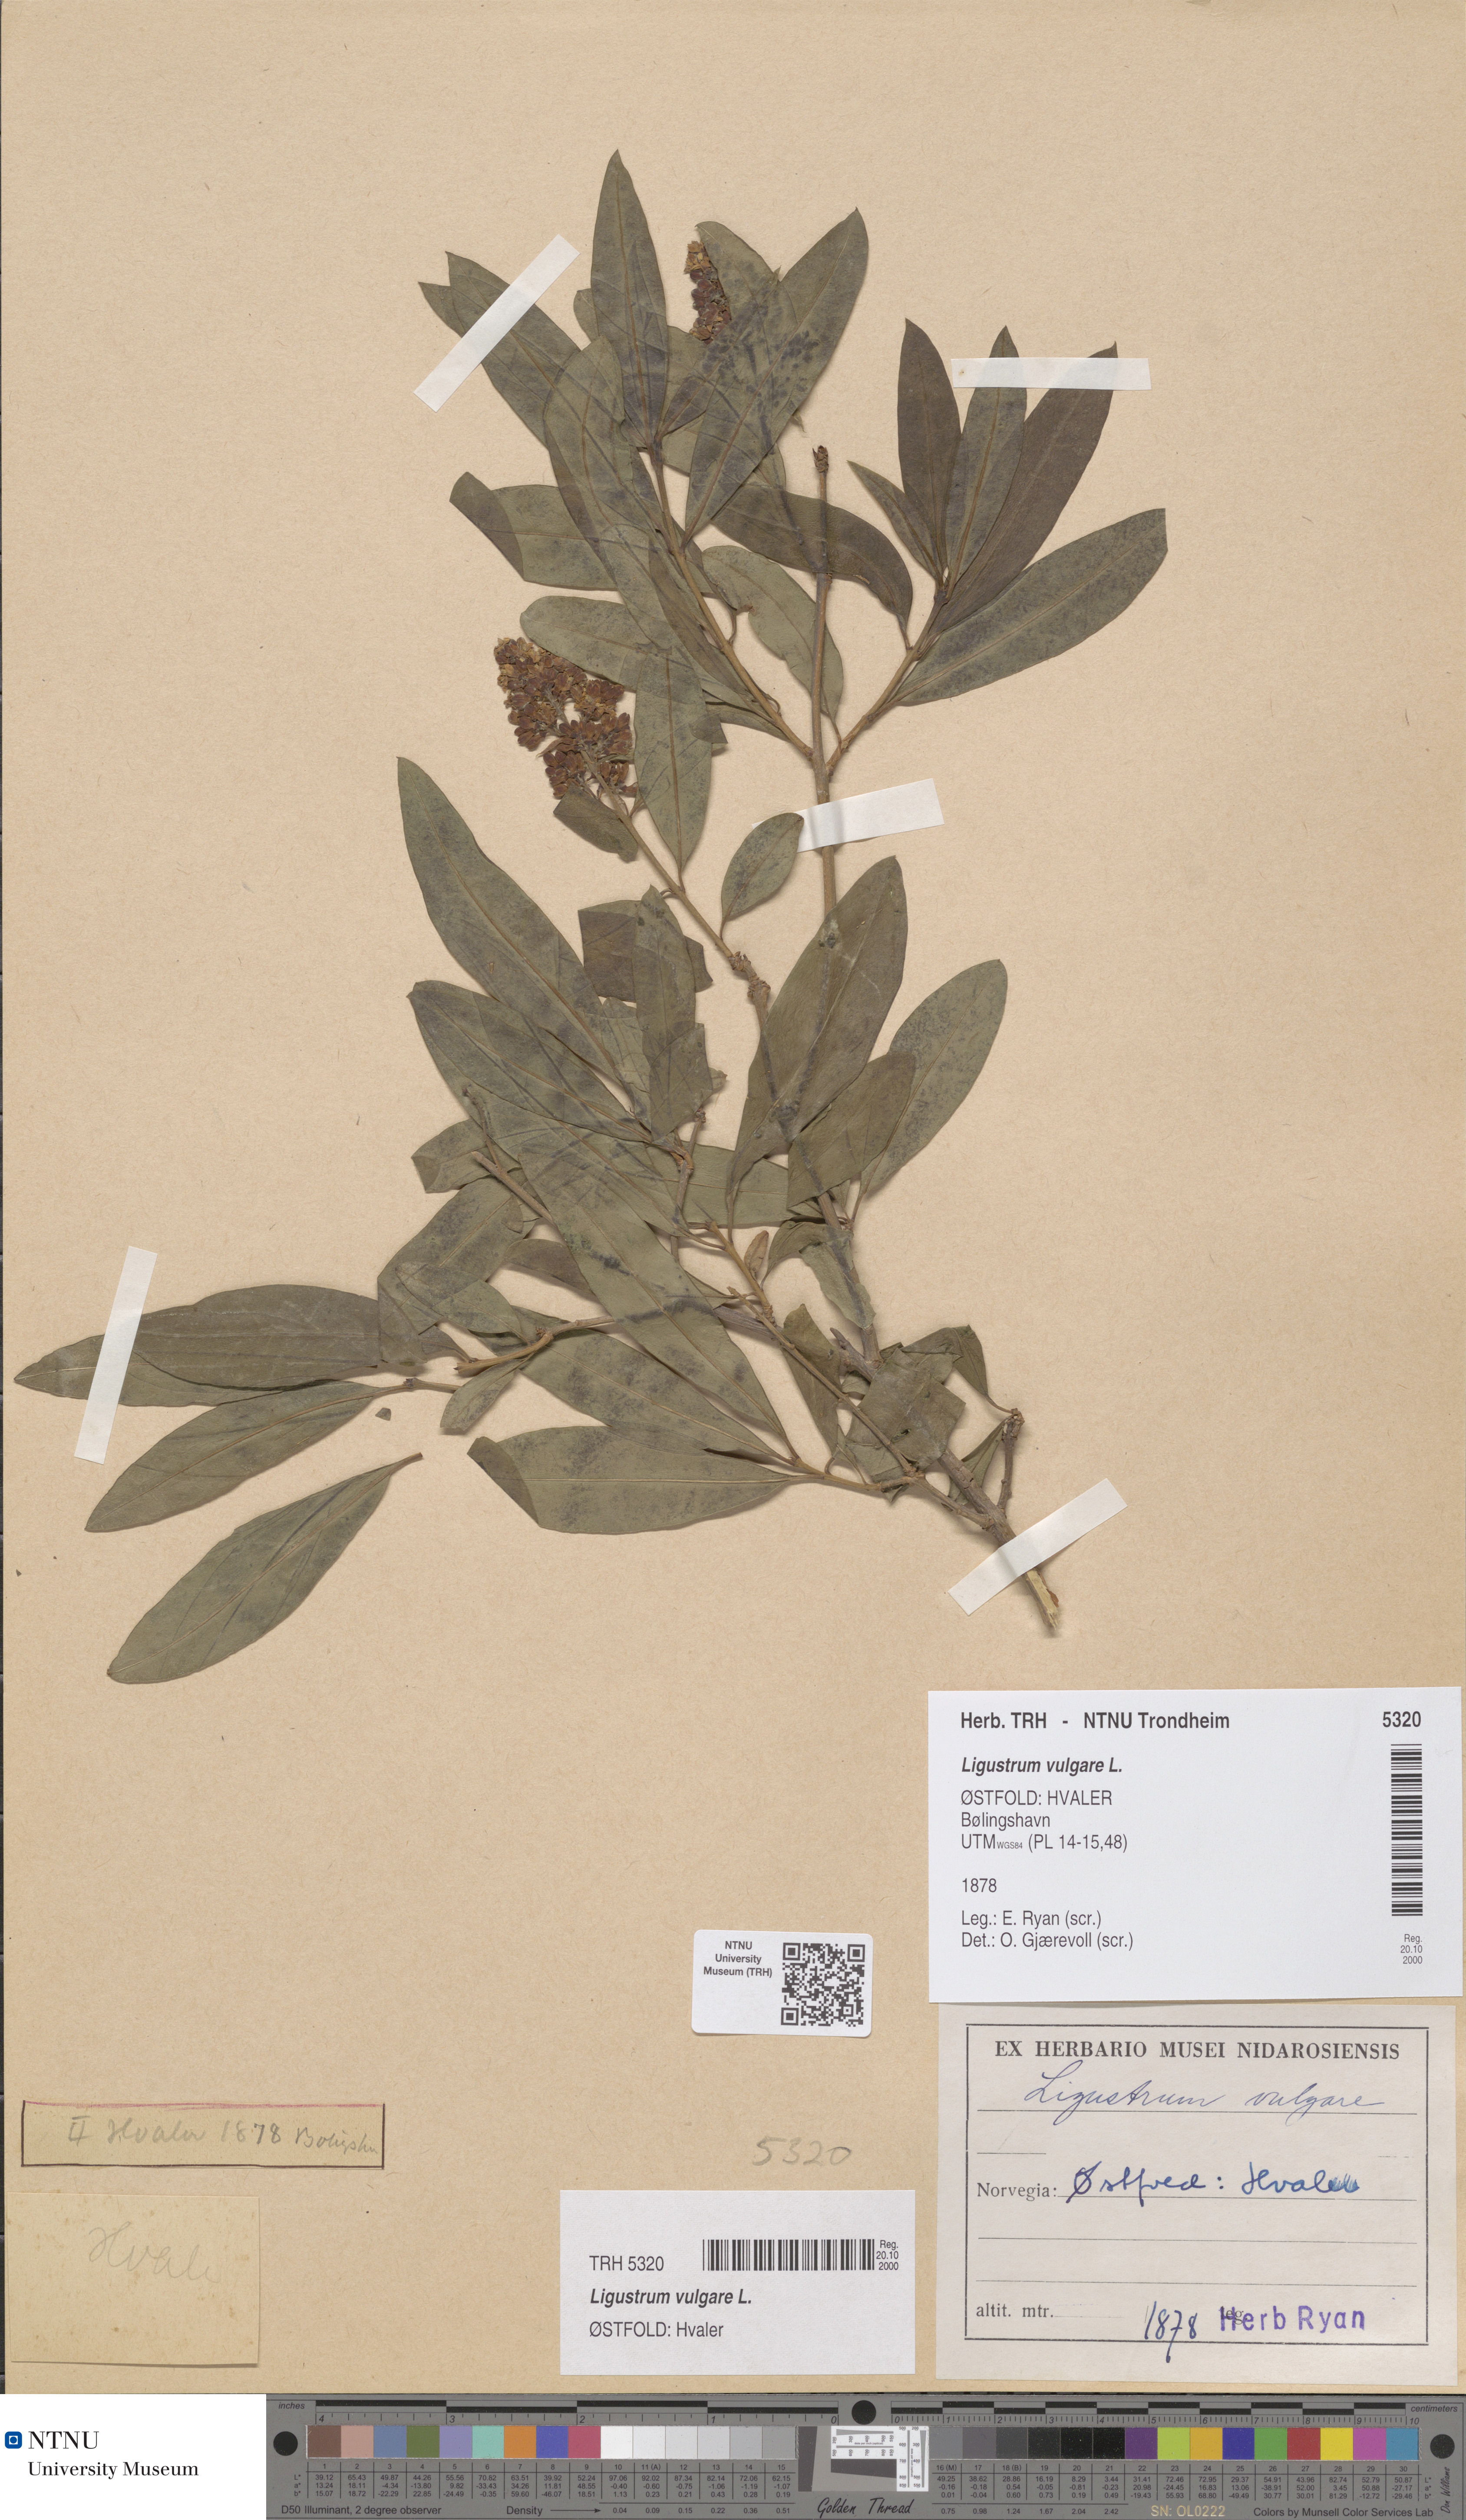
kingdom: Plantae
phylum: Tracheophyta
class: Magnoliopsida
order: Lamiales
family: Oleaceae
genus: Ligustrum
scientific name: Ligustrum vulgare
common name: Wild privet
